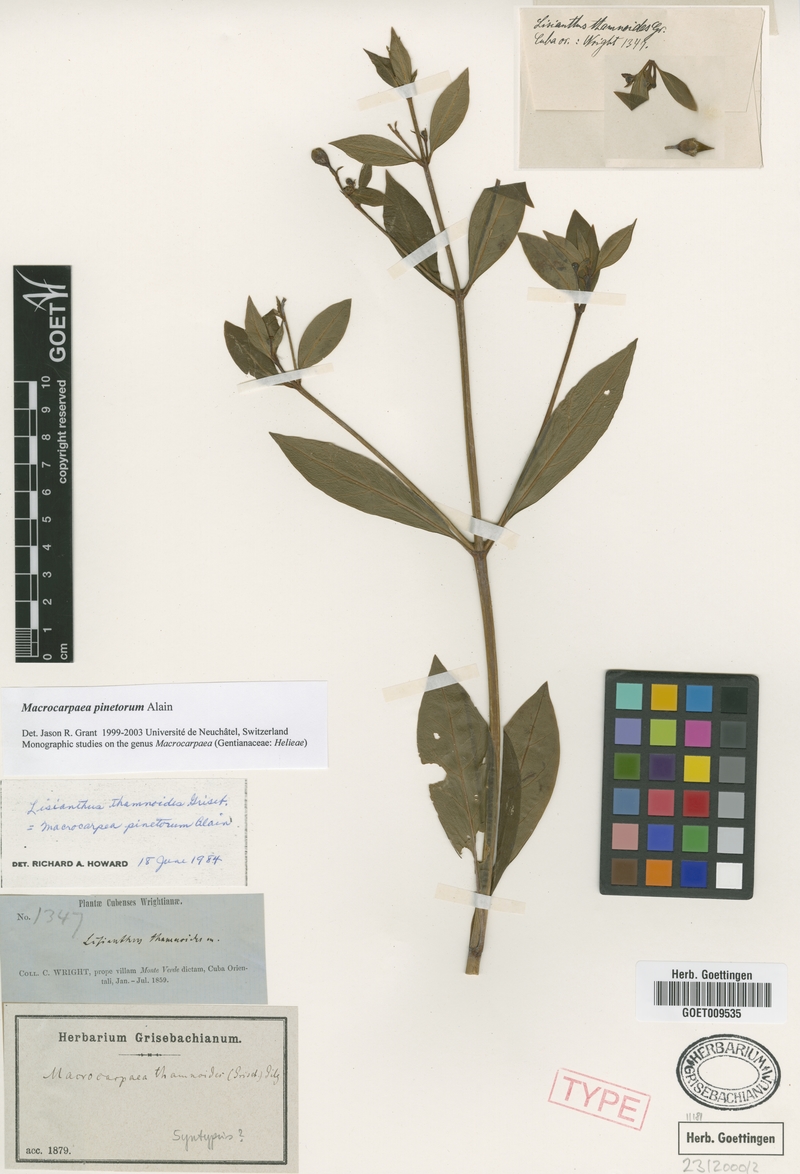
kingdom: Plantae
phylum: Tracheophyta
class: Magnoliopsida
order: Gentianales
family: Gentianaceae
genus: Macrocarpaea
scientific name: Macrocarpaea pinetorum
